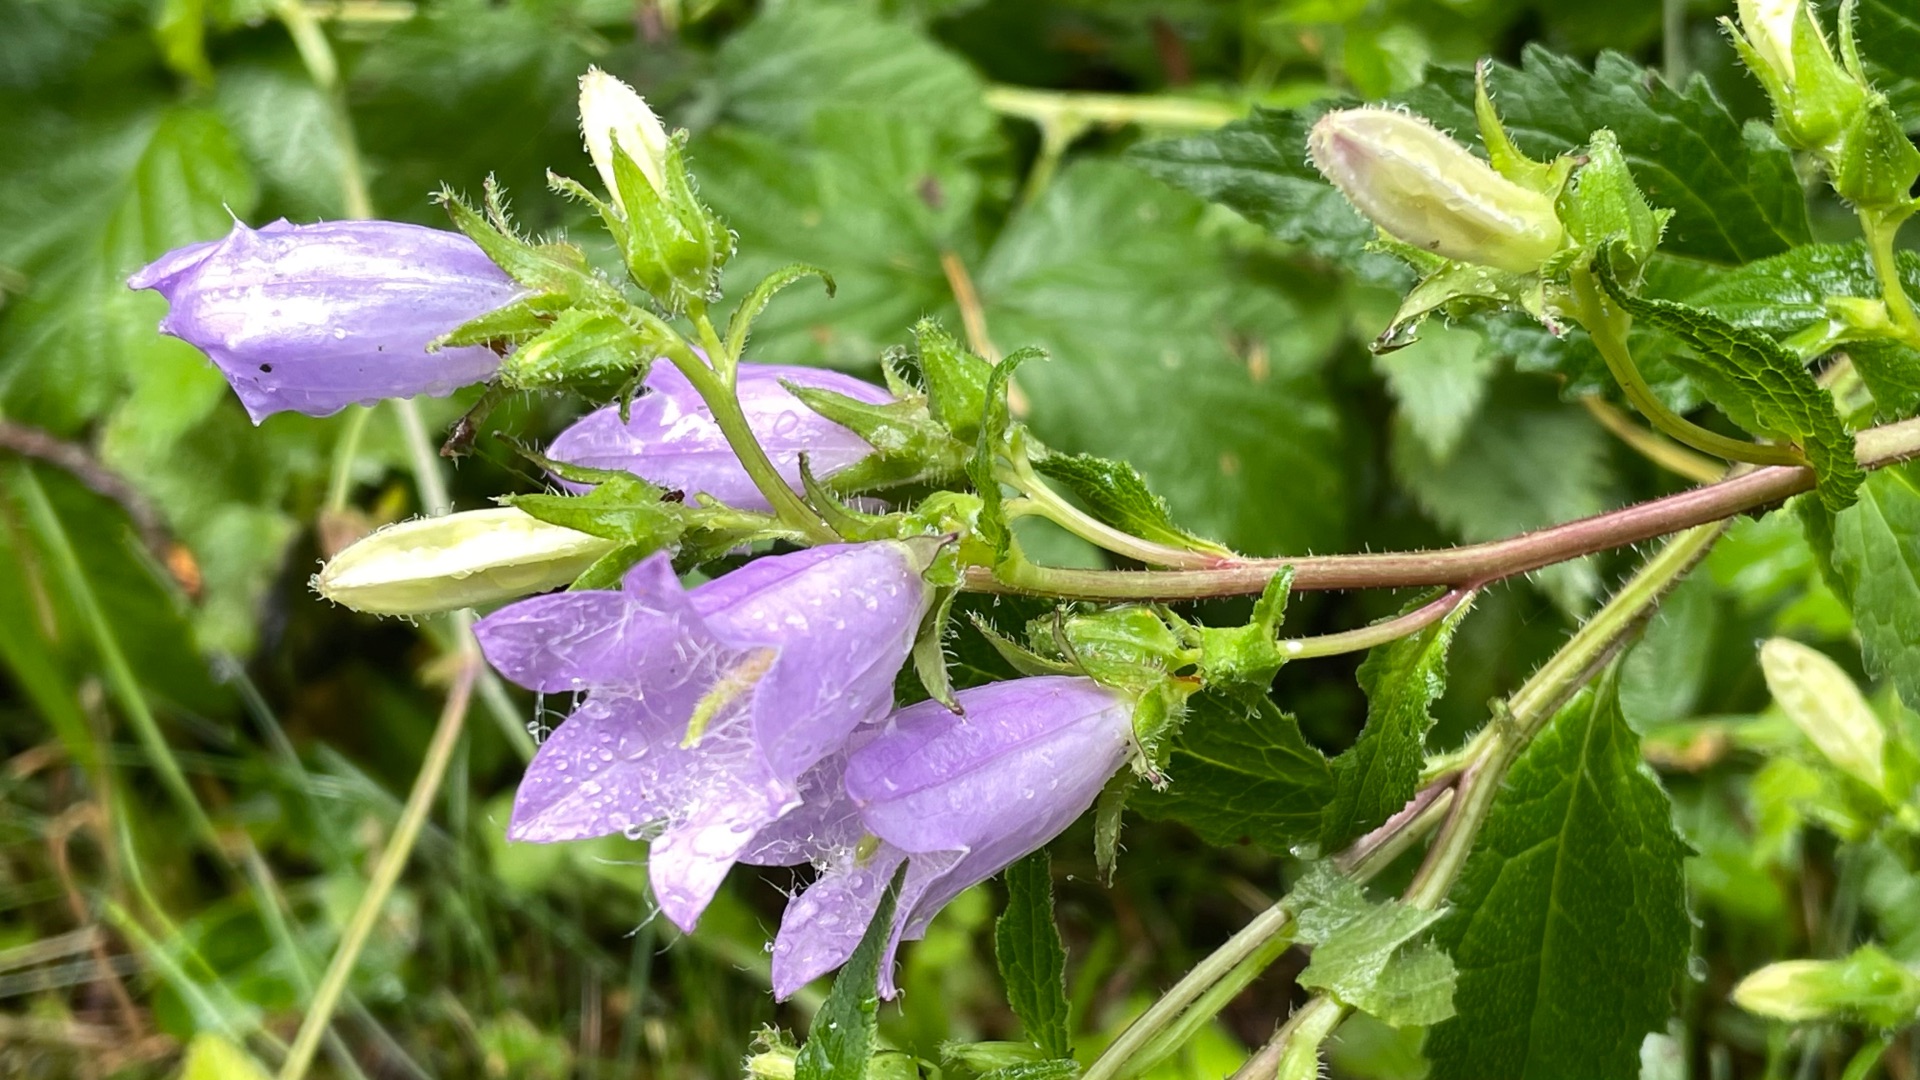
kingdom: Plantae
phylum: Tracheophyta
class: Magnoliopsida
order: Asterales
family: Campanulaceae
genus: Campanula
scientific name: Campanula trachelium
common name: Nælde-klokke
